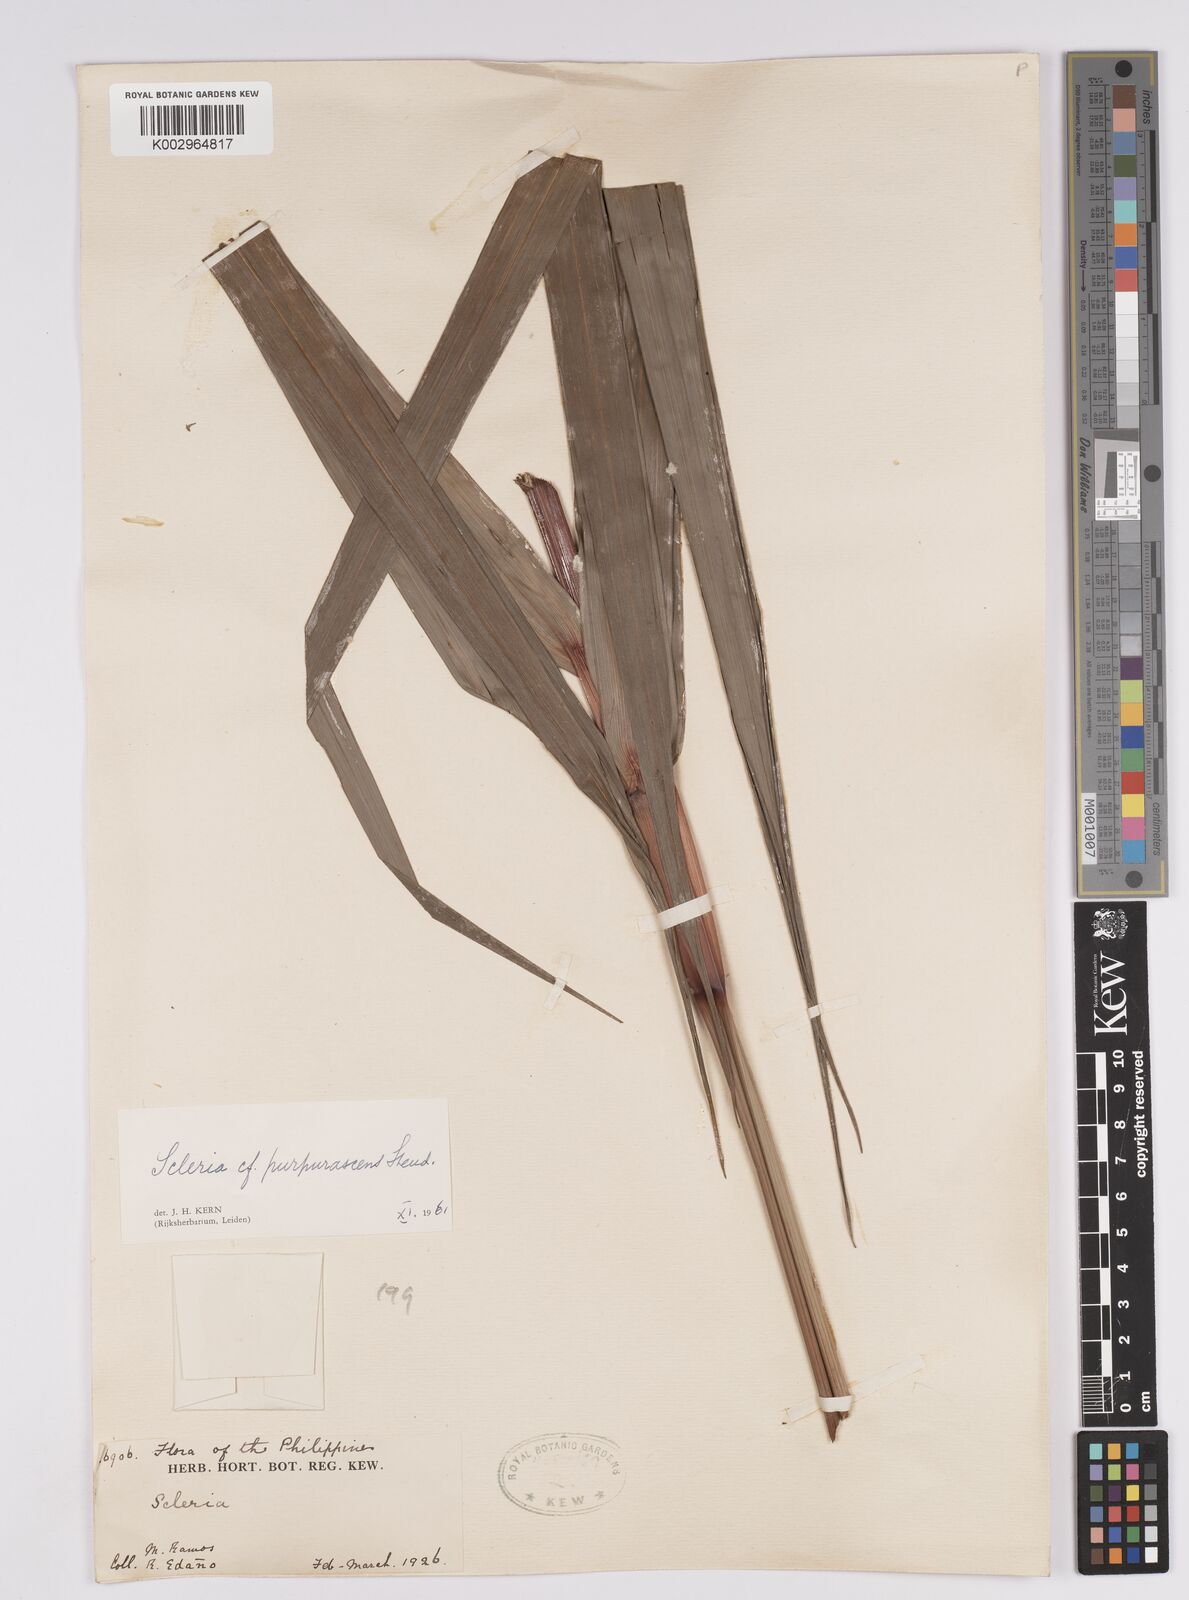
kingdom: Plantae
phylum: Tracheophyta
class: Liliopsida
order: Poales
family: Cyperaceae
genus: Scleria
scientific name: Scleria purpurascens
